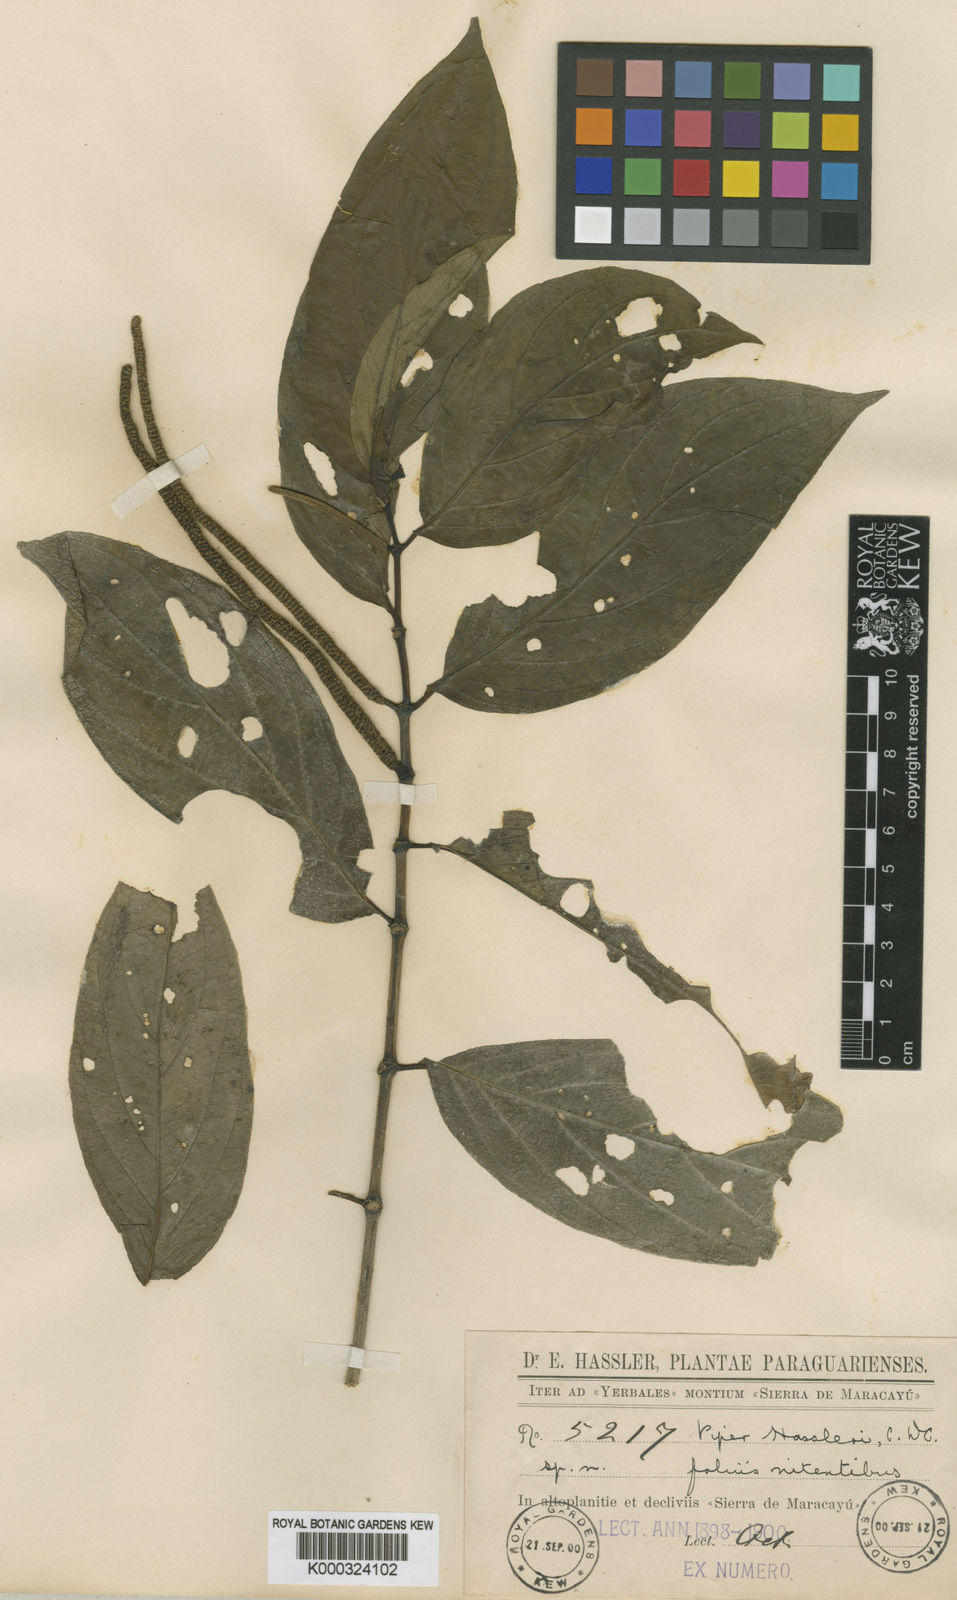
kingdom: Plantae
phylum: Tracheophyta
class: Magnoliopsida
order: Piperales
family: Piperaceae
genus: Piper
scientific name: Piper hassleri
